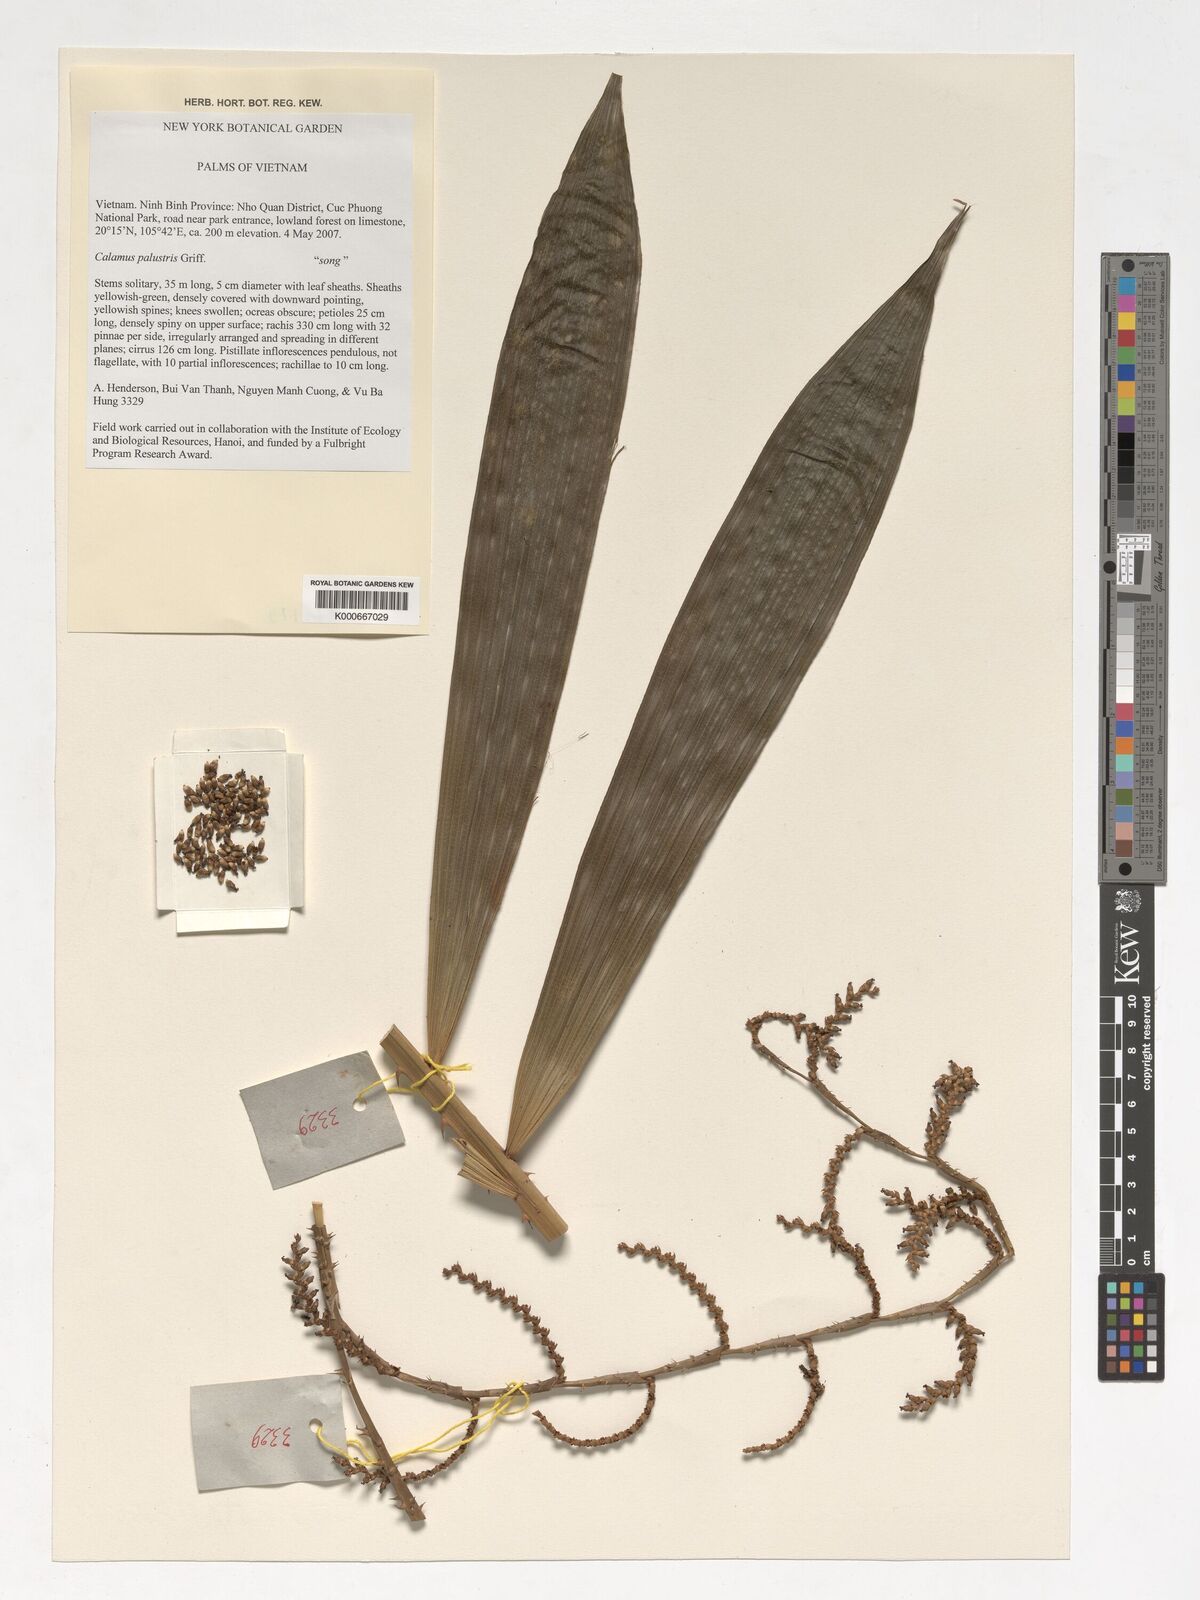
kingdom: Plantae
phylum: Tracheophyta
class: Liliopsida
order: Arecales
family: Arecaceae
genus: Calamus
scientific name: Calamus latifolius
